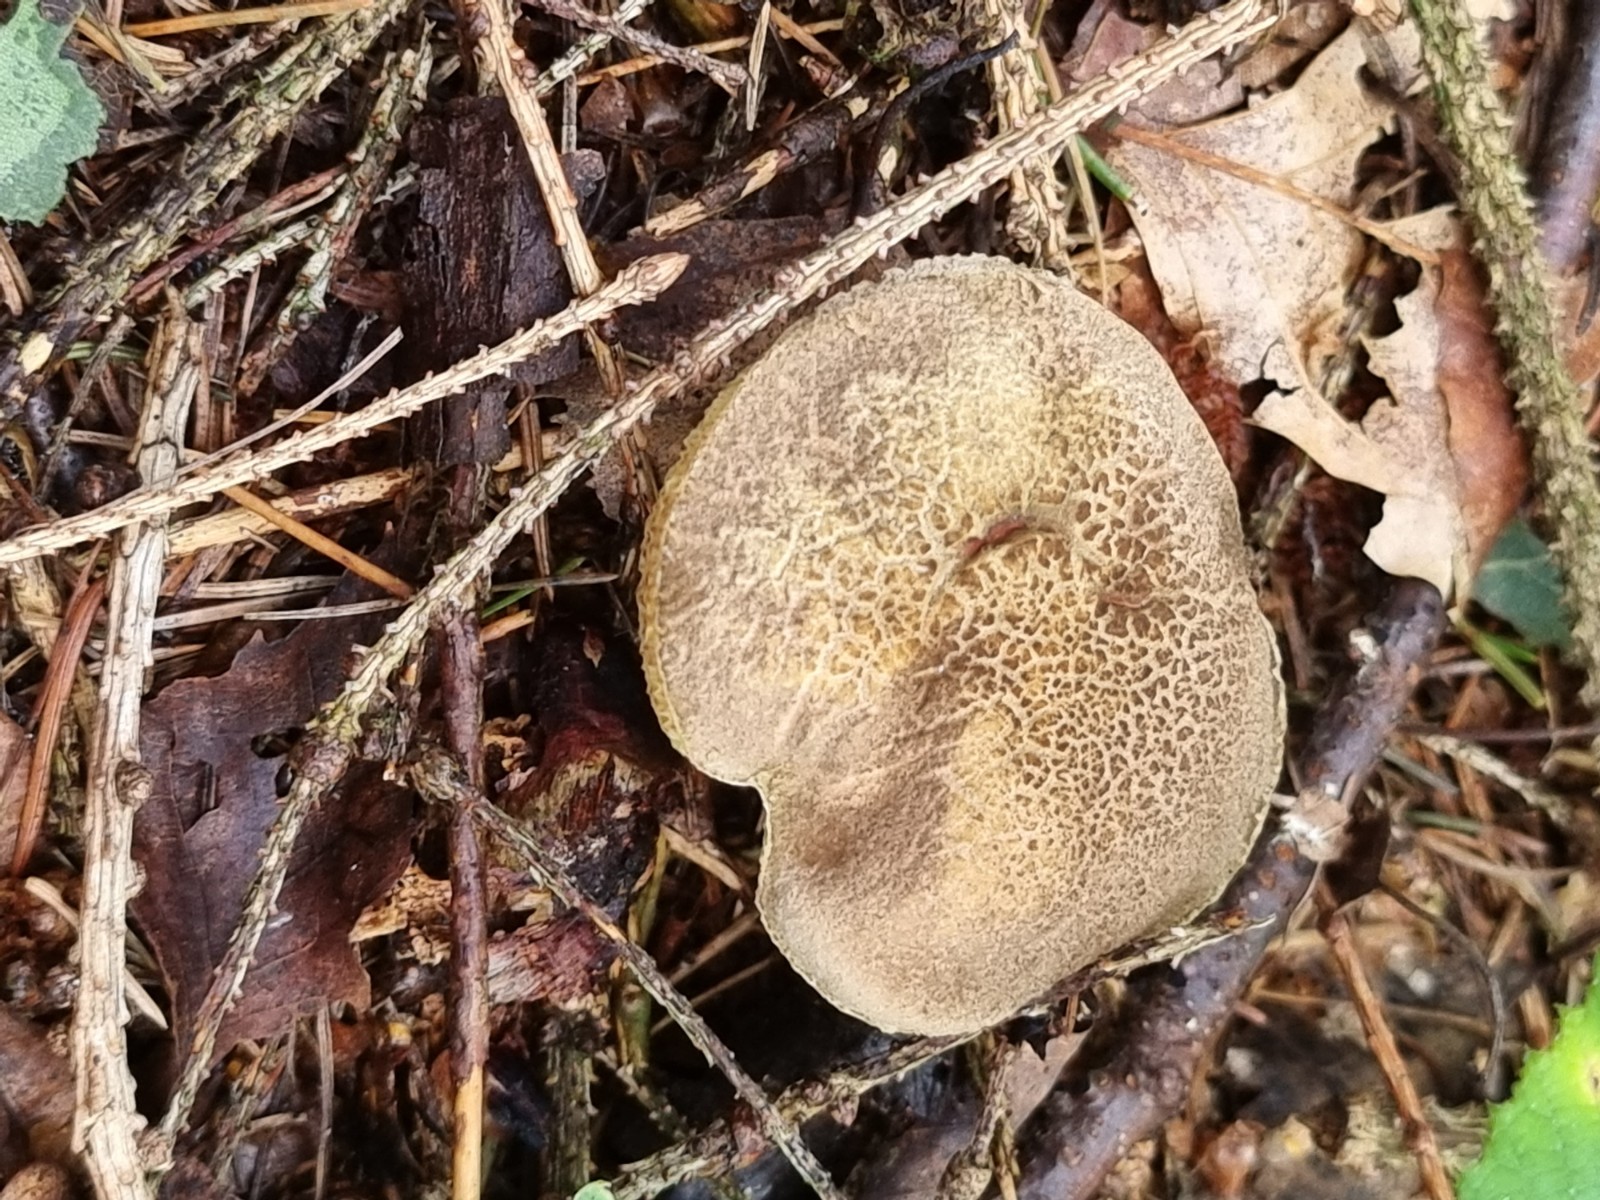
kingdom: Fungi
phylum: Basidiomycota
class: Agaricomycetes
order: Boletales
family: Boletaceae
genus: Xerocomellus
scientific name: Xerocomellus
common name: dværgrørhat
